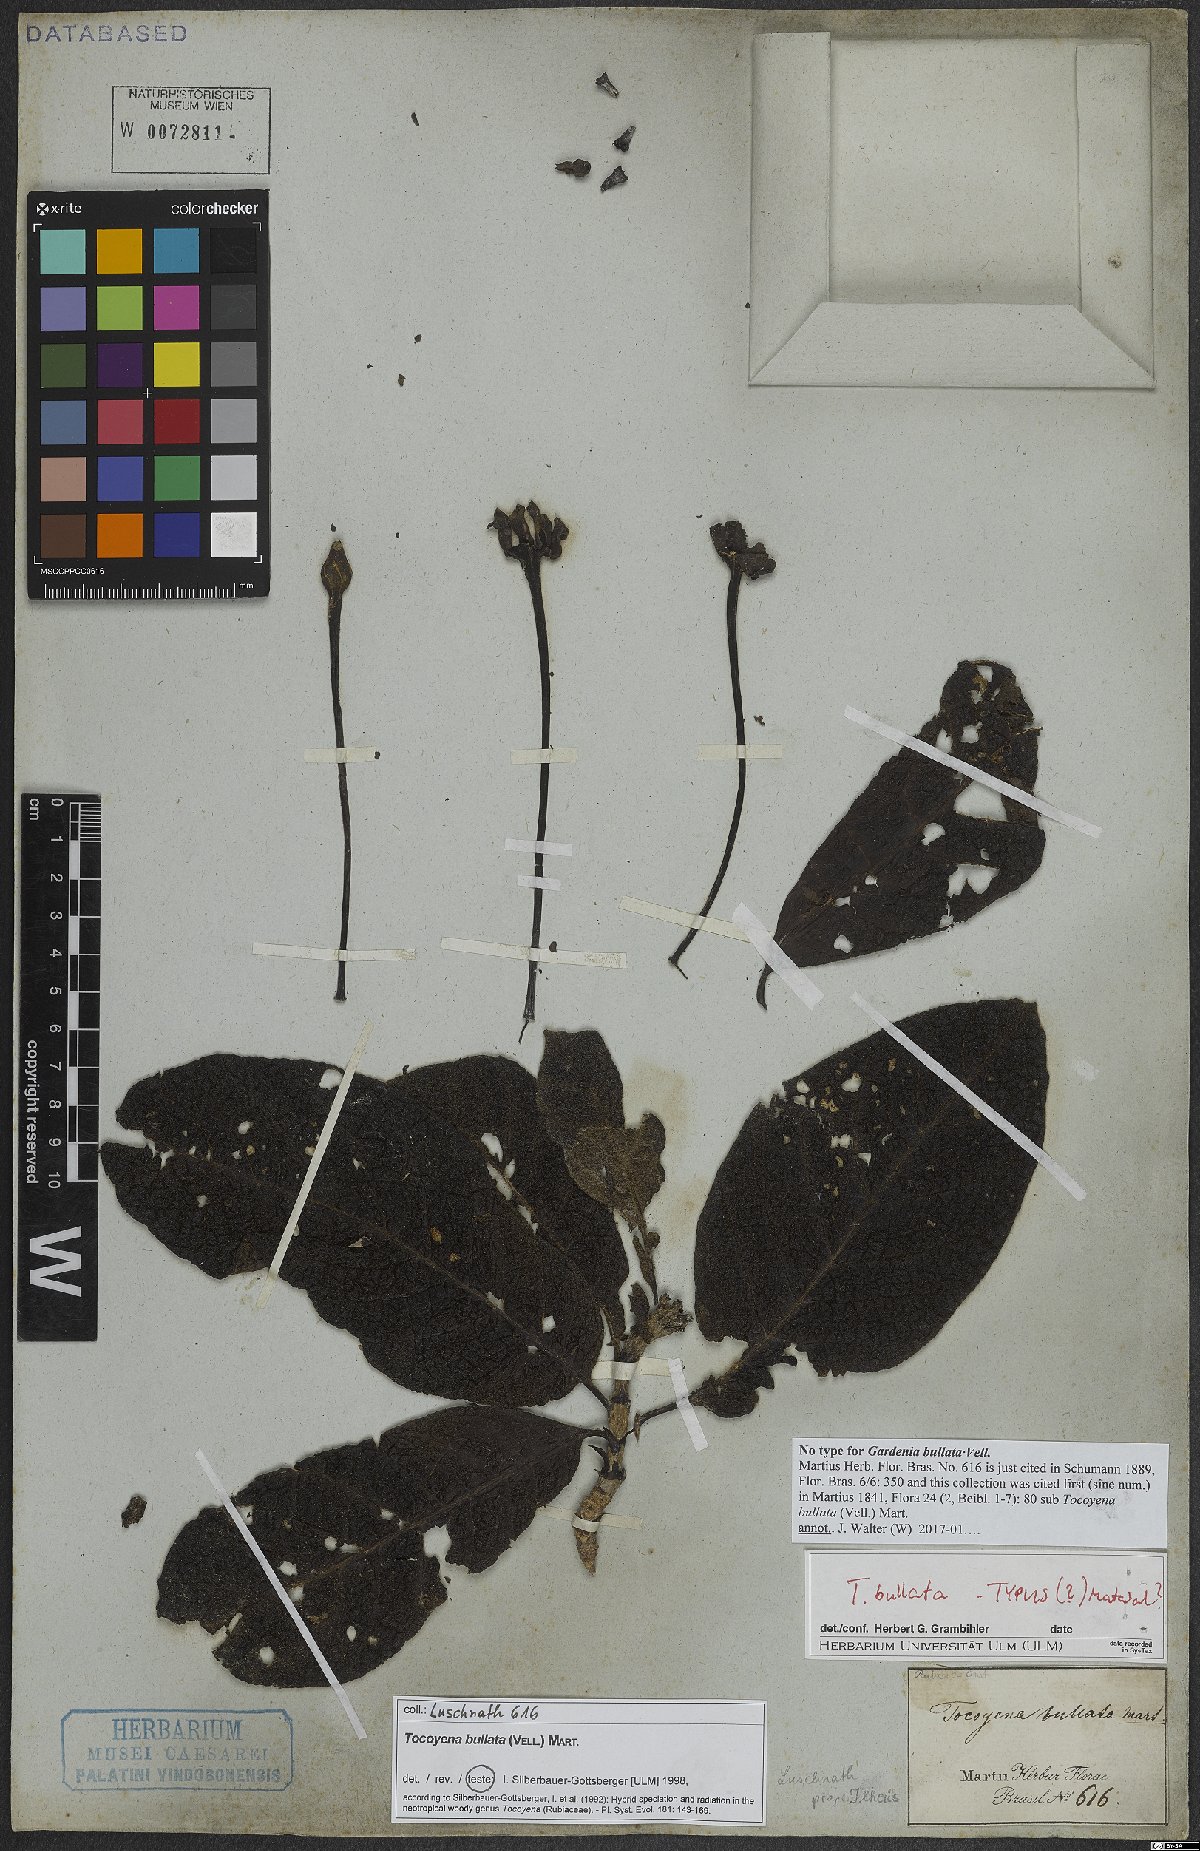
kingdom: Plantae
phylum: Tracheophyta
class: Magnoliopsida
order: Gentianales
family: Rubiaceae
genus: Tocoyena
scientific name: Tocoyena bullata
